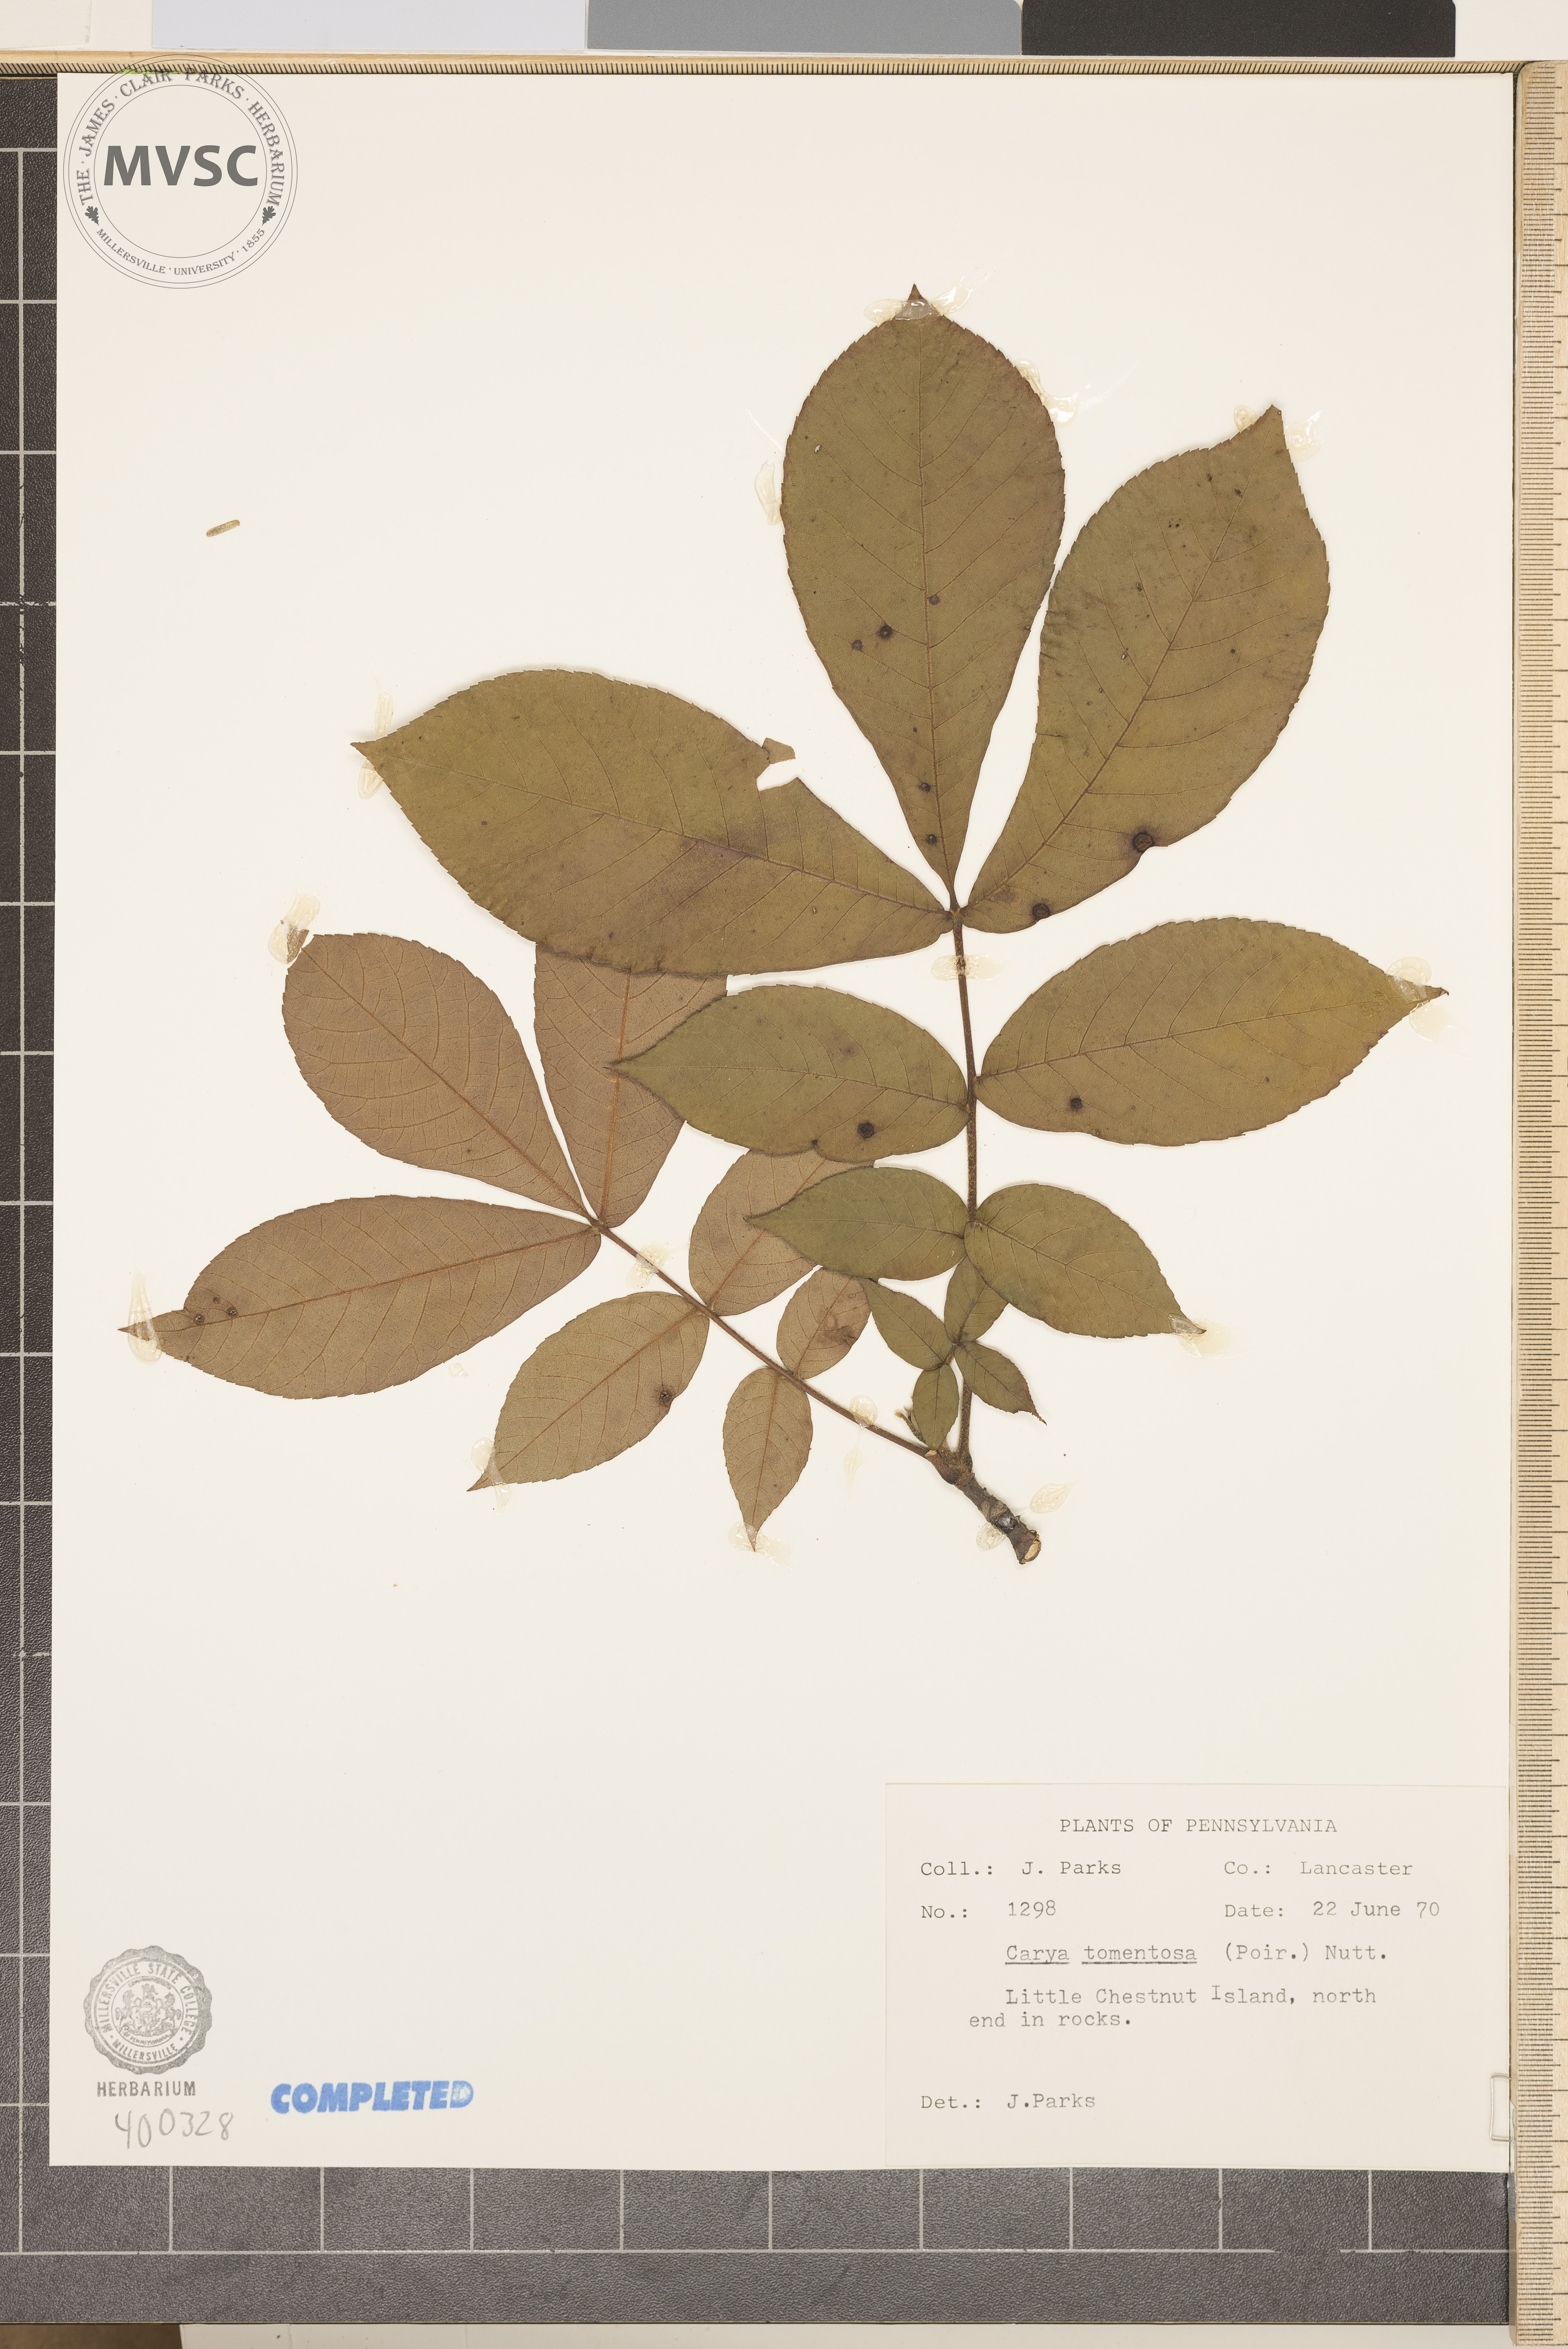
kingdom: Plantae
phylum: Tracheophyta
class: Magnoliopsida
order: Fagales
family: Juglandaceae
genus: Carya
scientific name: Carya alba
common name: mockernut hickory
